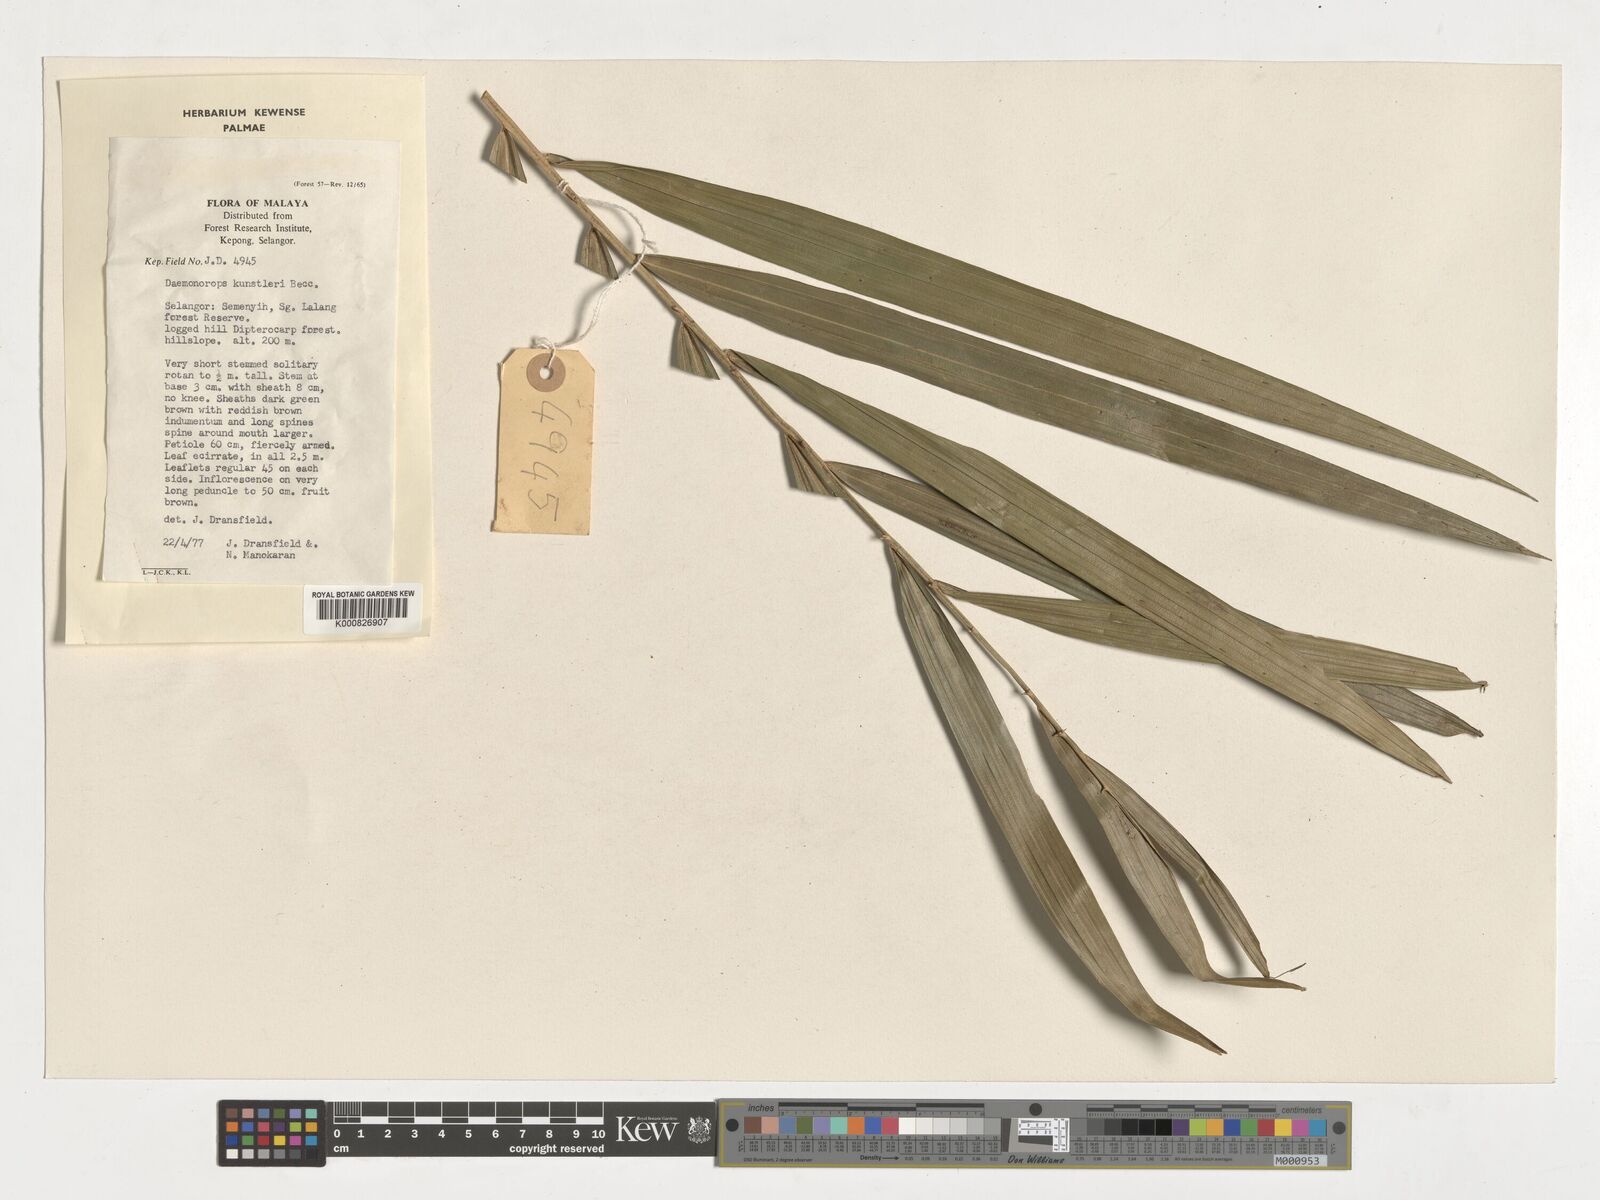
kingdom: Plantae
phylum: Tracheophyta
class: Liliopsida
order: Arecales
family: Arecaceae
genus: Calamus
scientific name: Calamus kunstleri
